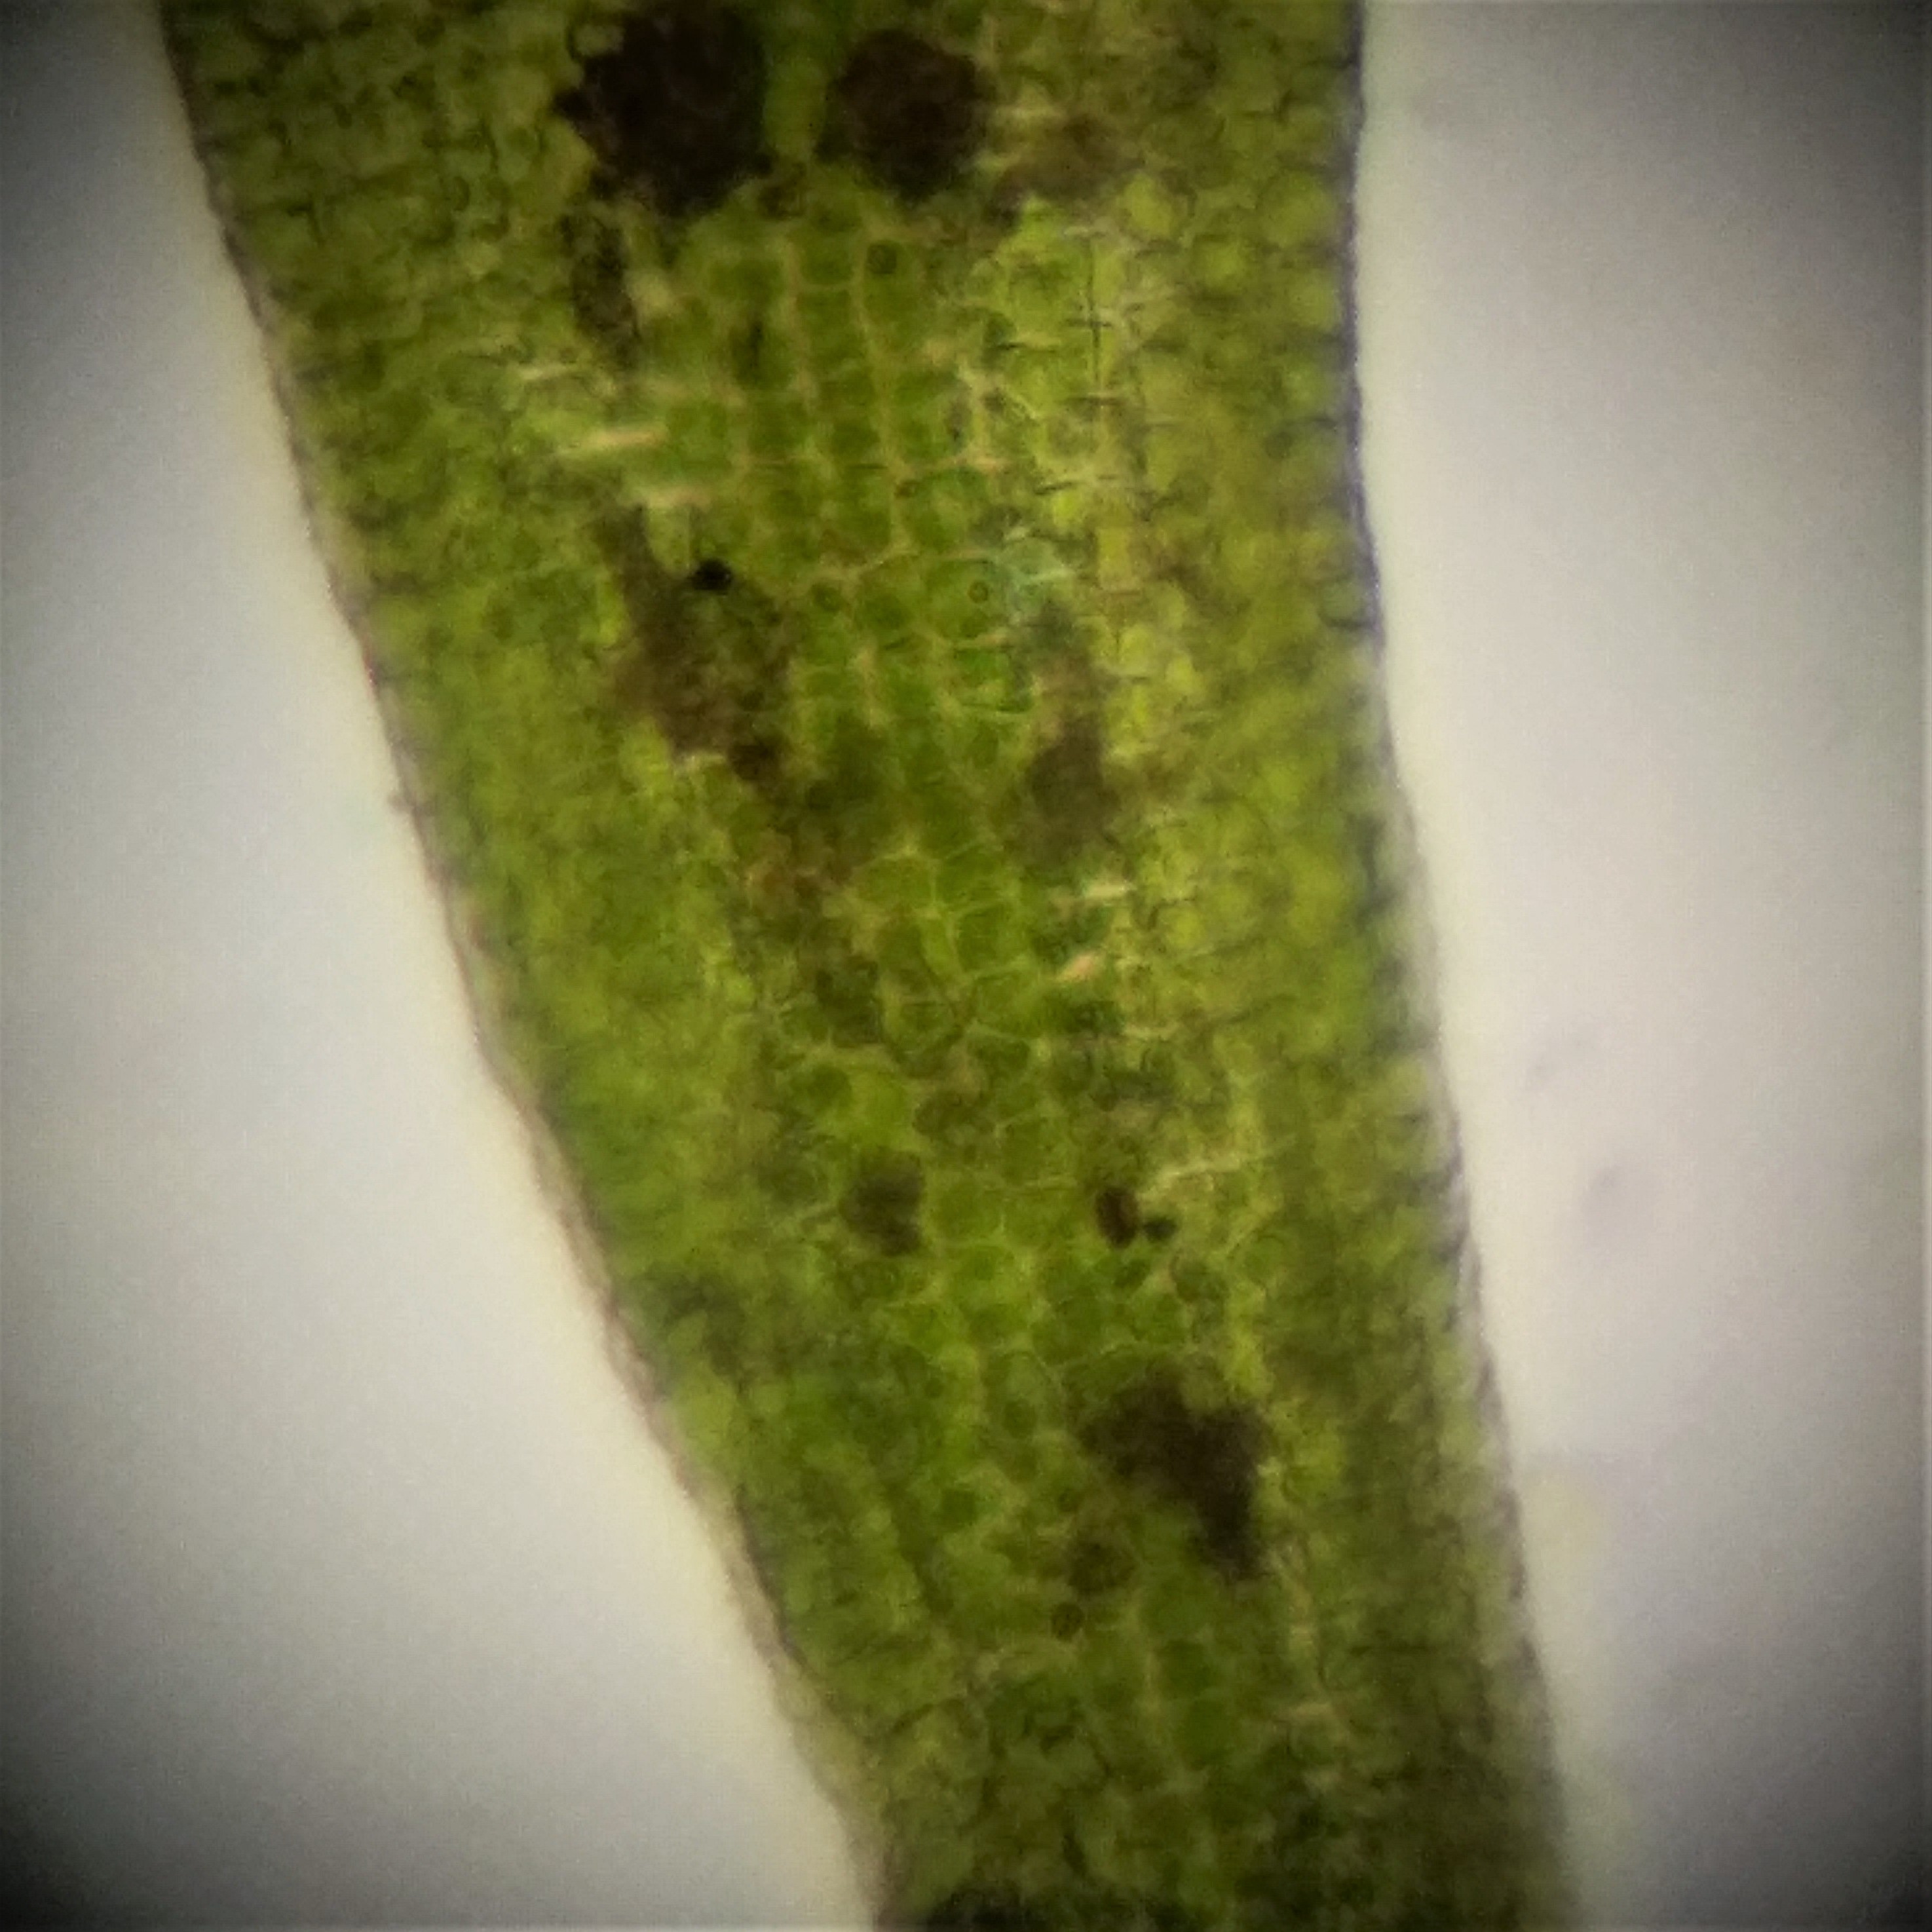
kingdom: Plantae
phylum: Bryophyta
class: Bryopsida
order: Pottiales
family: Pottiaceae
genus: Didymodon
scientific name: Didymodon rigidulus
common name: Stiv kalktuemos
